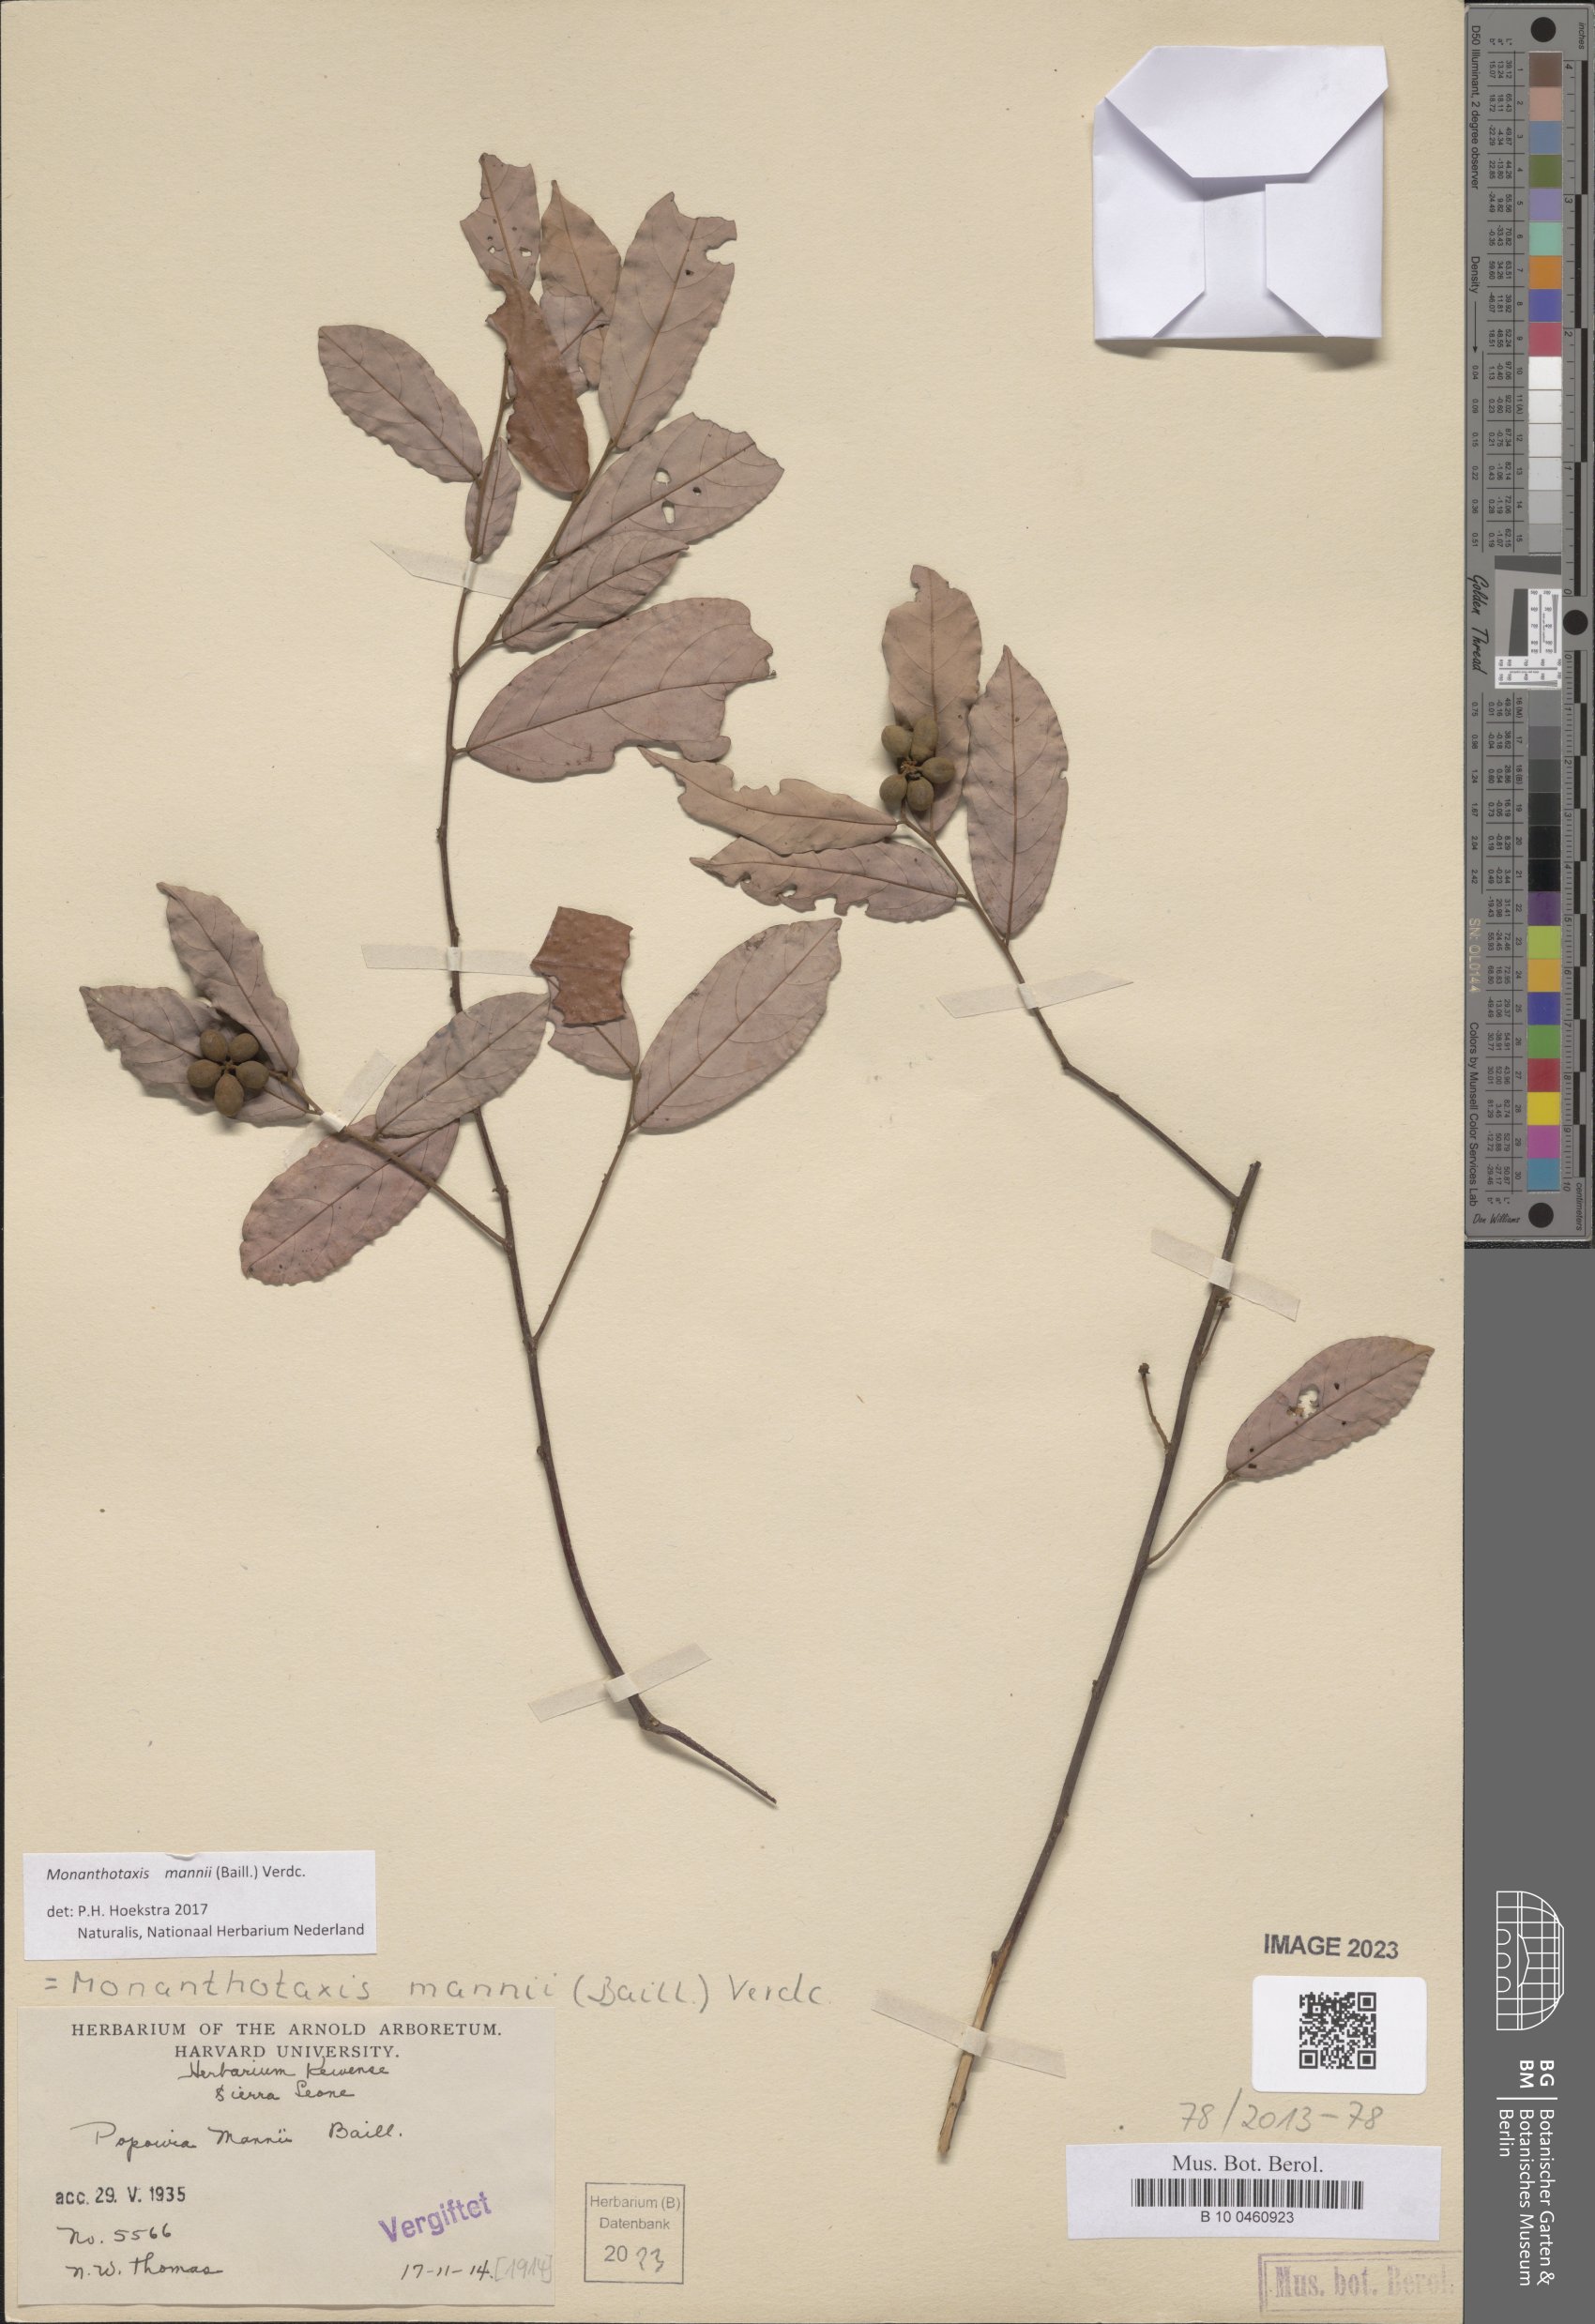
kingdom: Plantae
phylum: Tracheophyta
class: Magnoliopsida
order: Magnoliales
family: Annonaceae
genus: Monanthotaxis
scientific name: Monanthotaxis mannii
